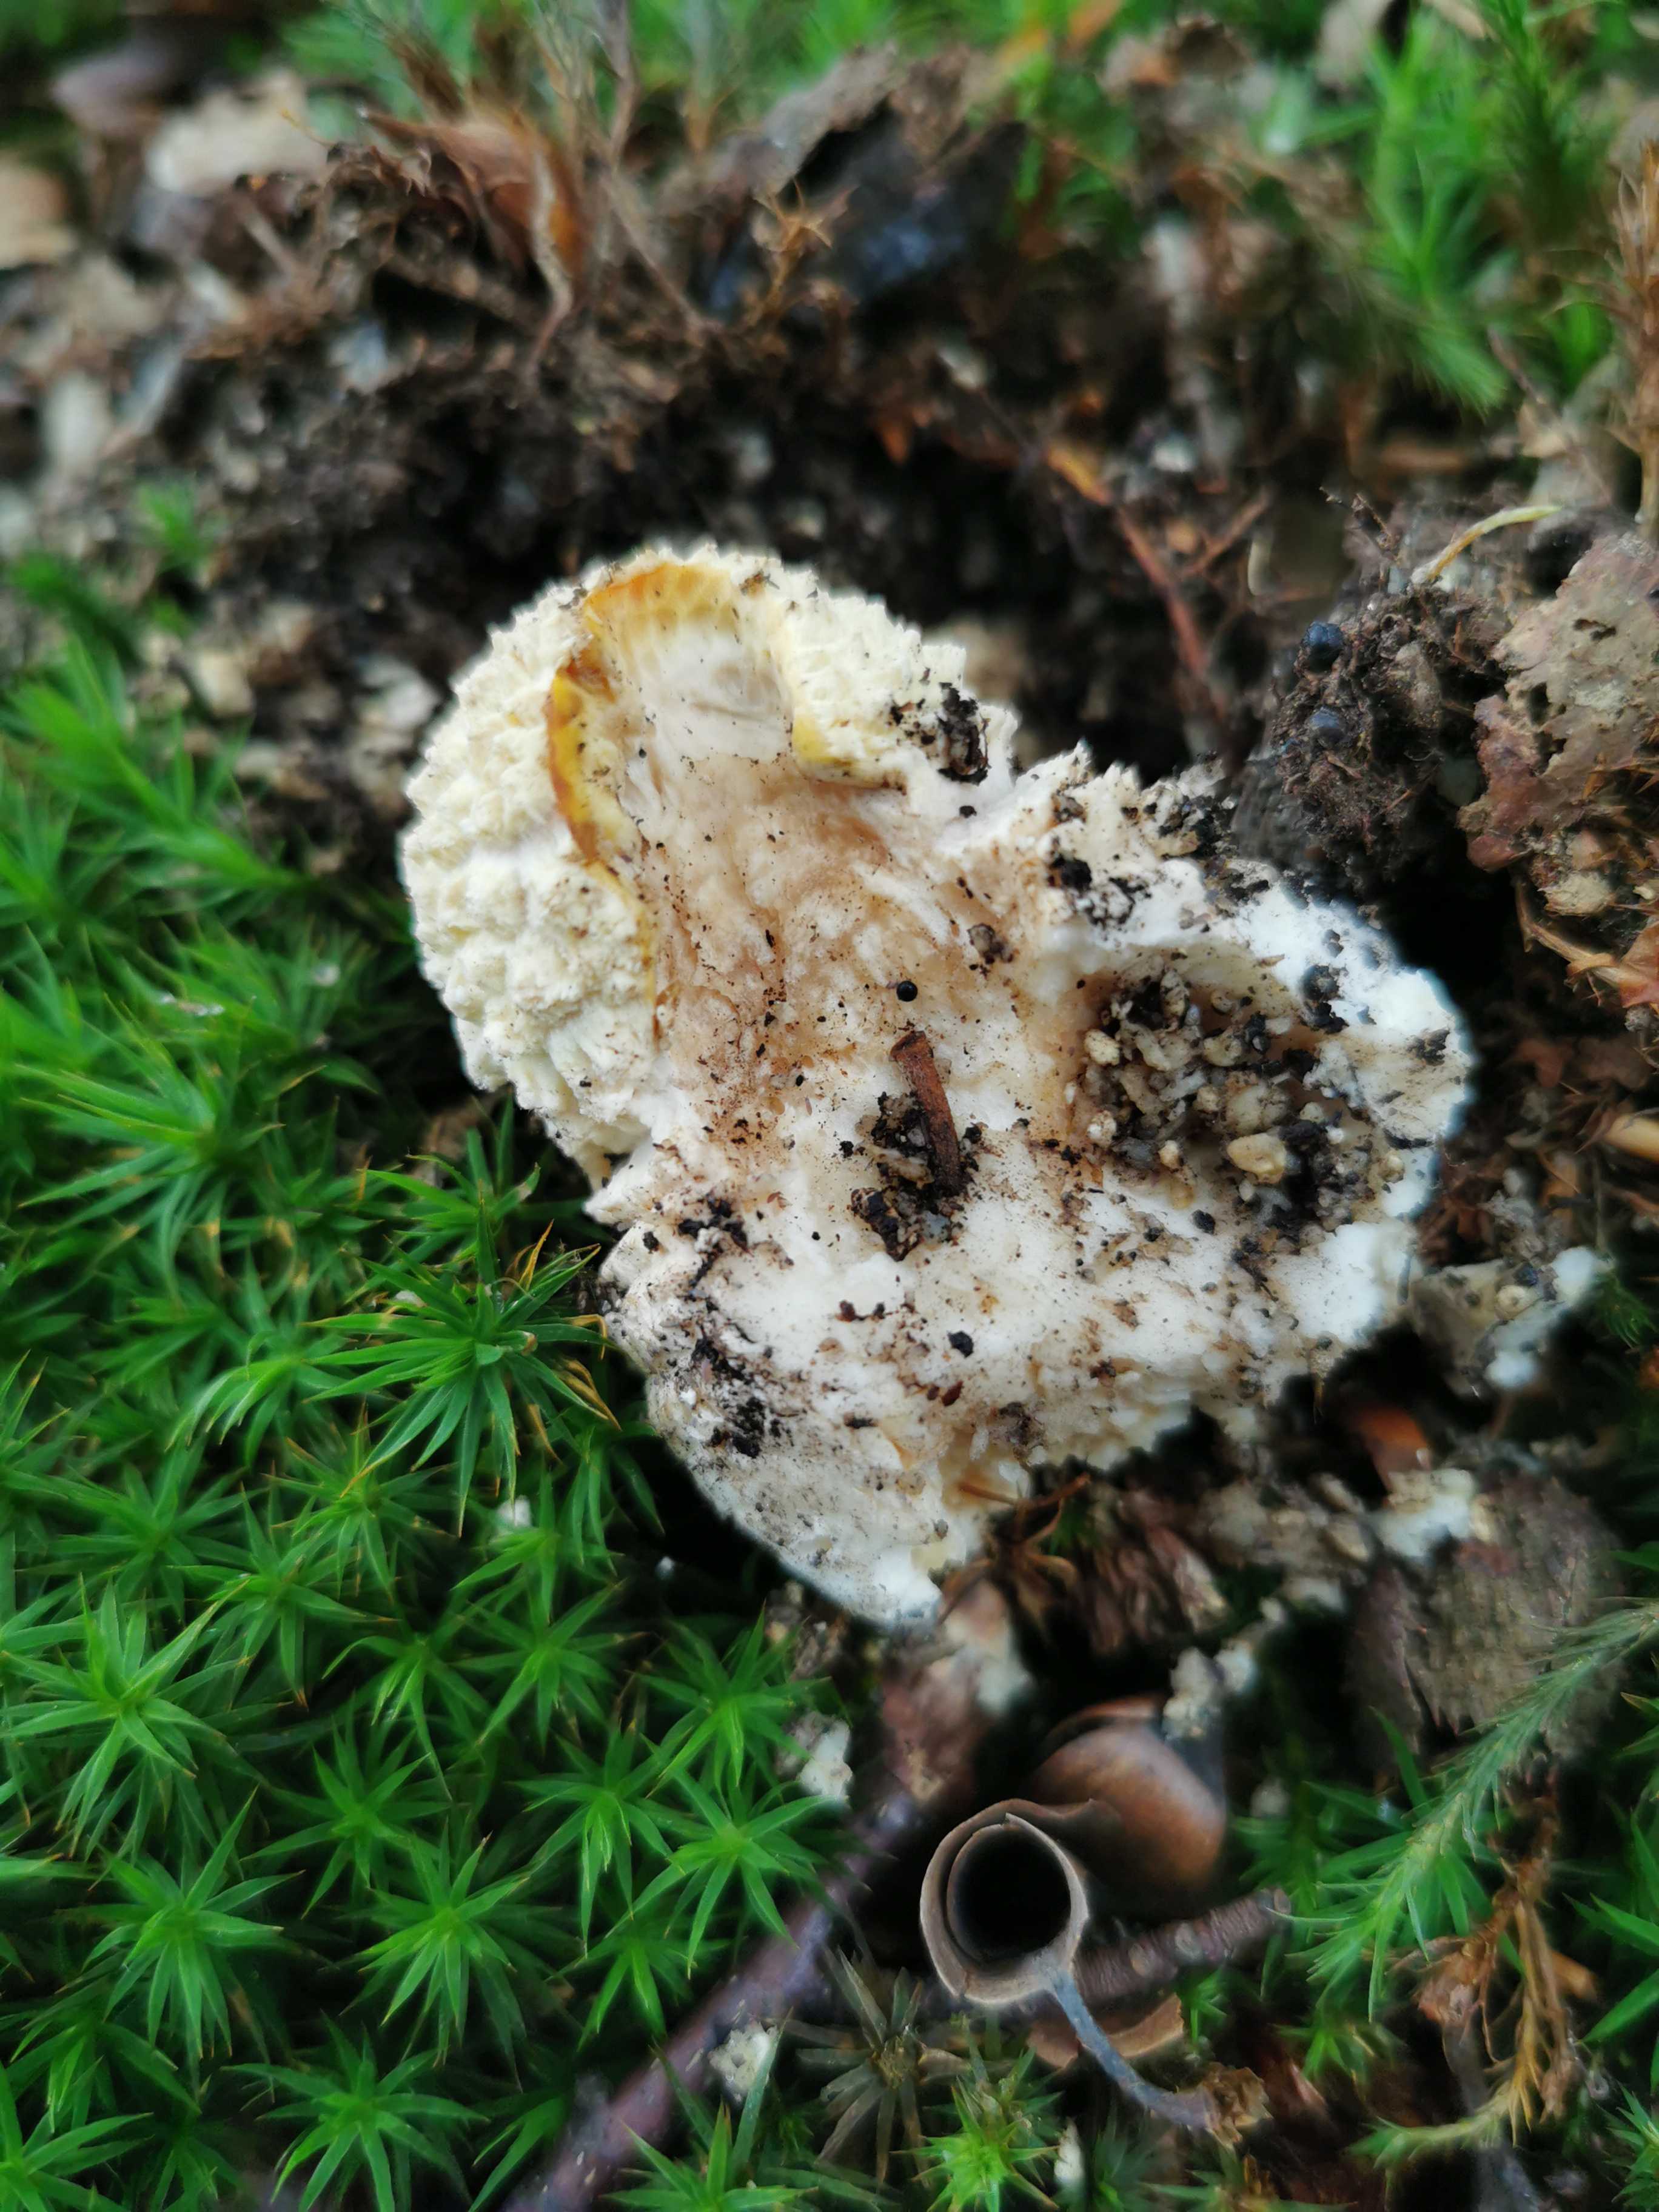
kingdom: Fungi
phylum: Basidiomycota
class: Agaricomycetes
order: Agaricales
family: Amanitaceae
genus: Amanita
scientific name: Amanita muscaria
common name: rød fluesvamp
